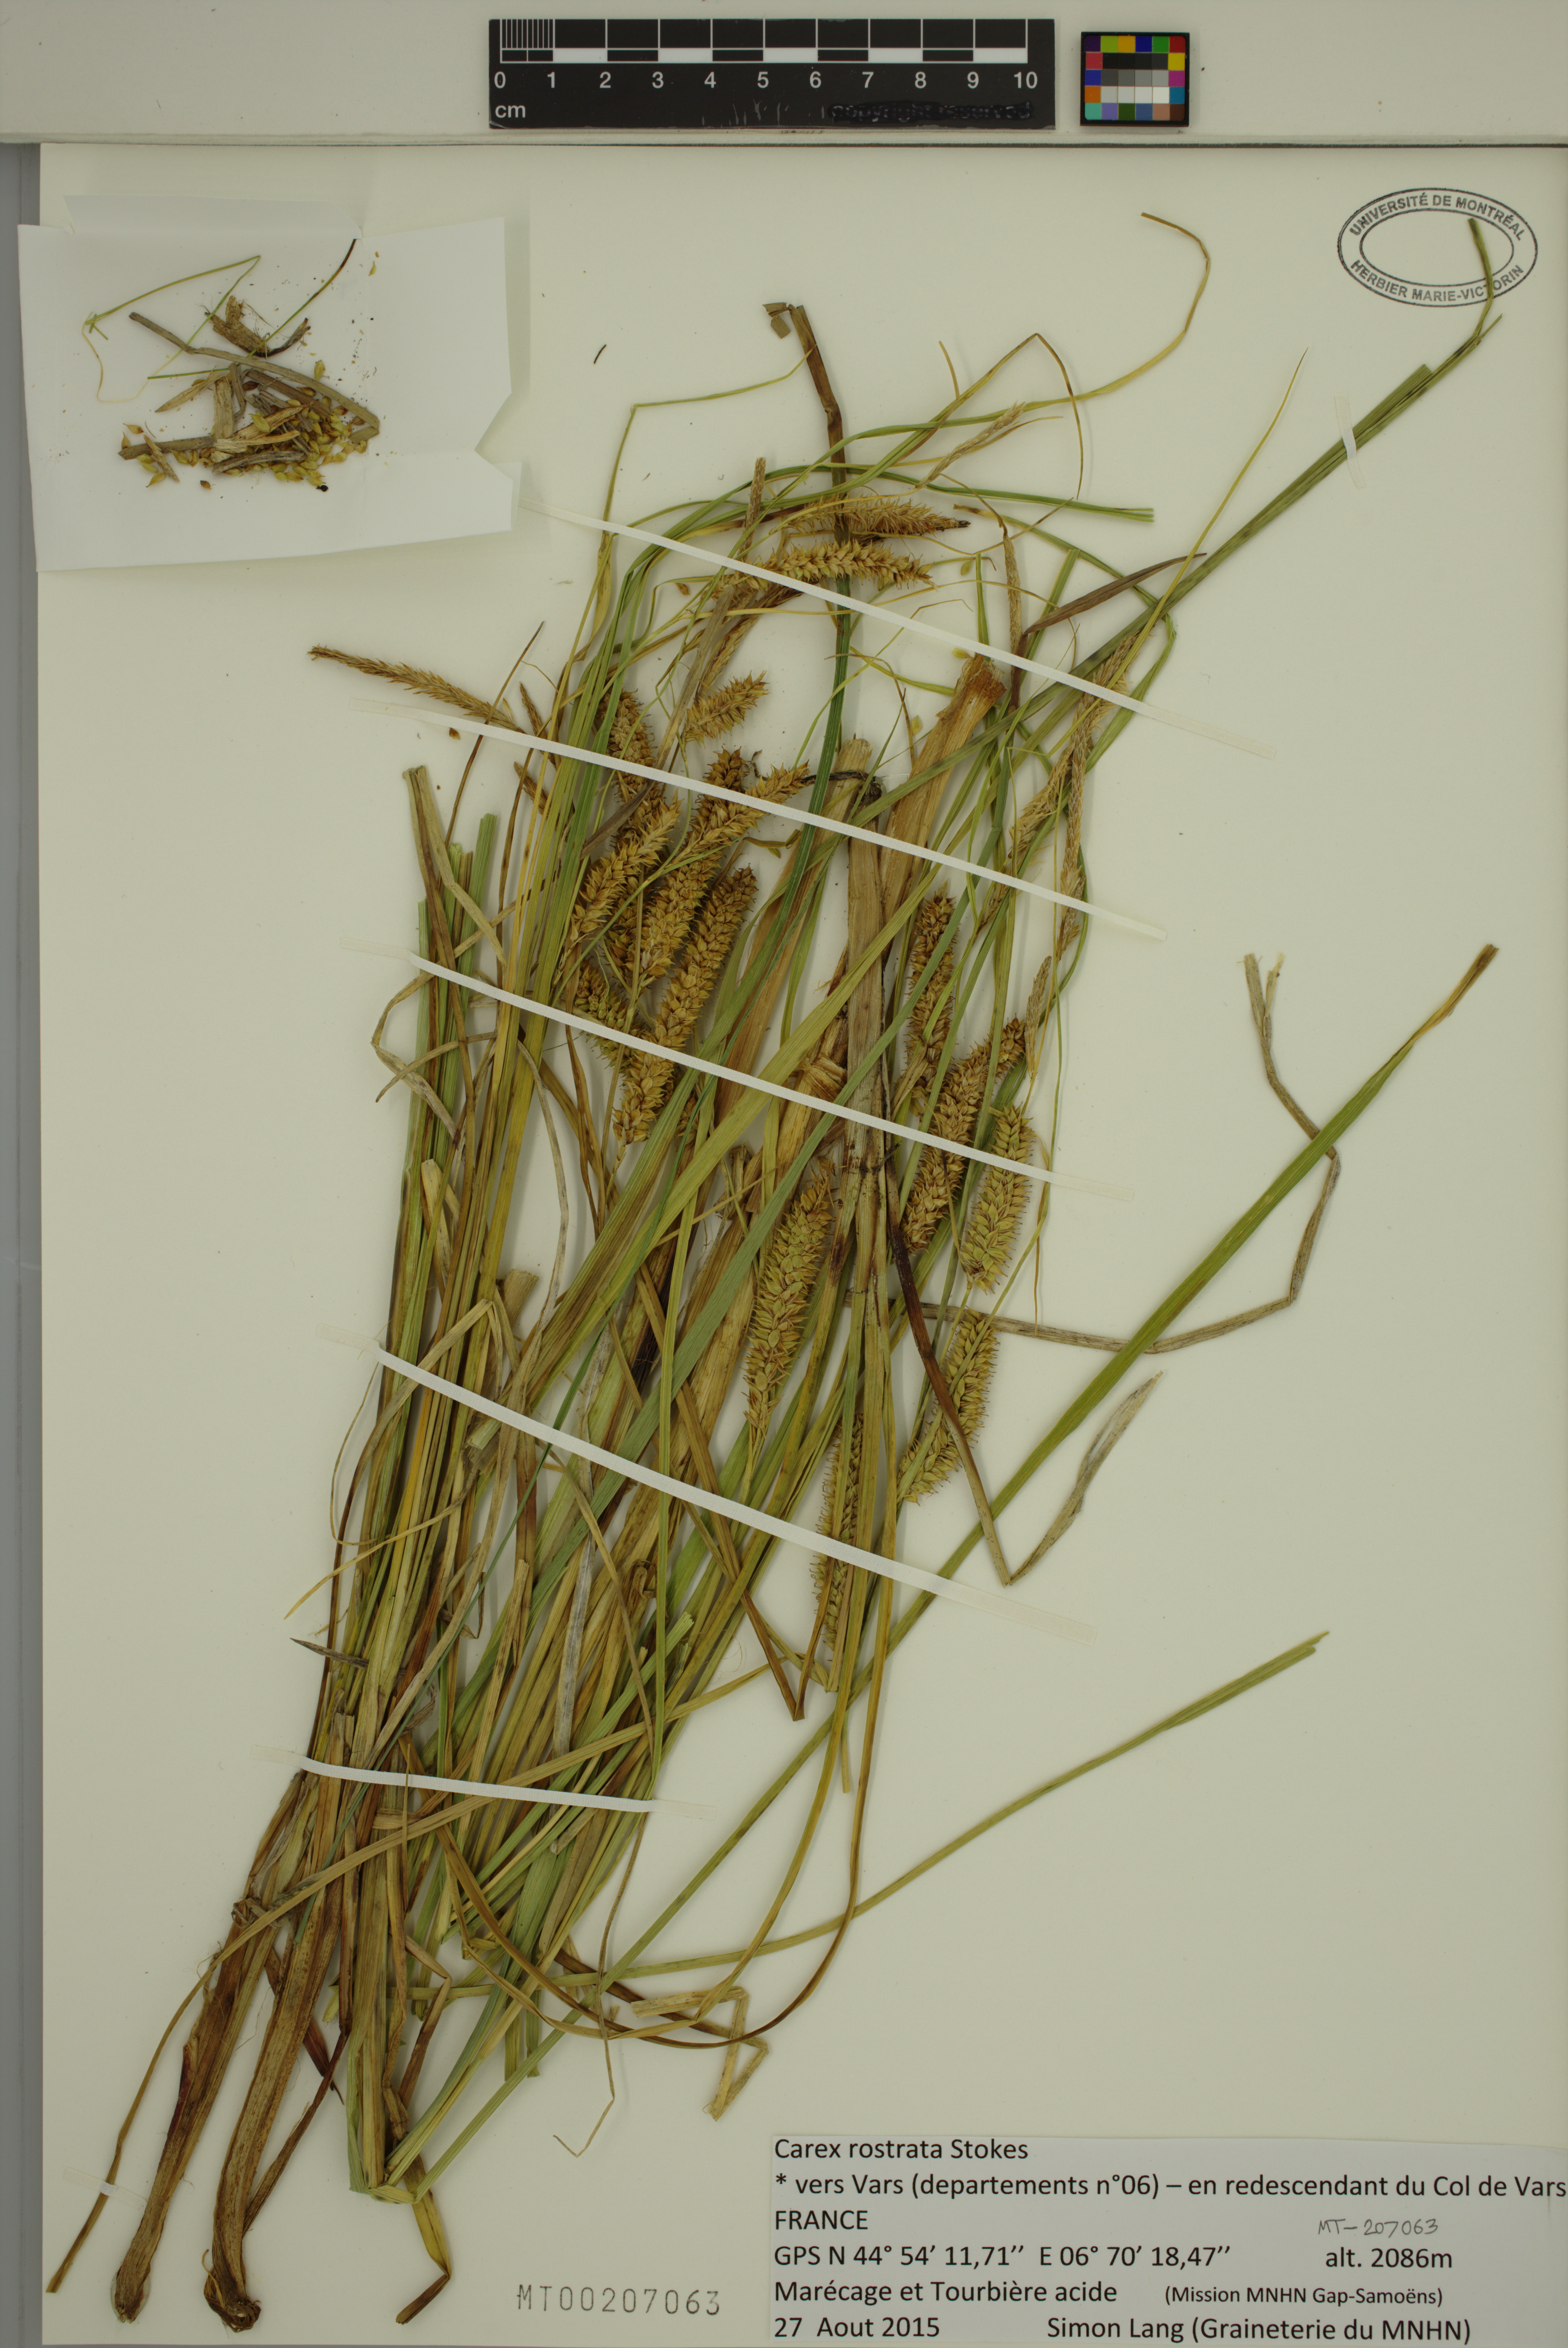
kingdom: Plantae
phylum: Tracheophyta
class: Liliopsida
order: Poales
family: Cyperaceae
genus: Carex
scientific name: Carex rostrata
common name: Bottle sedge
